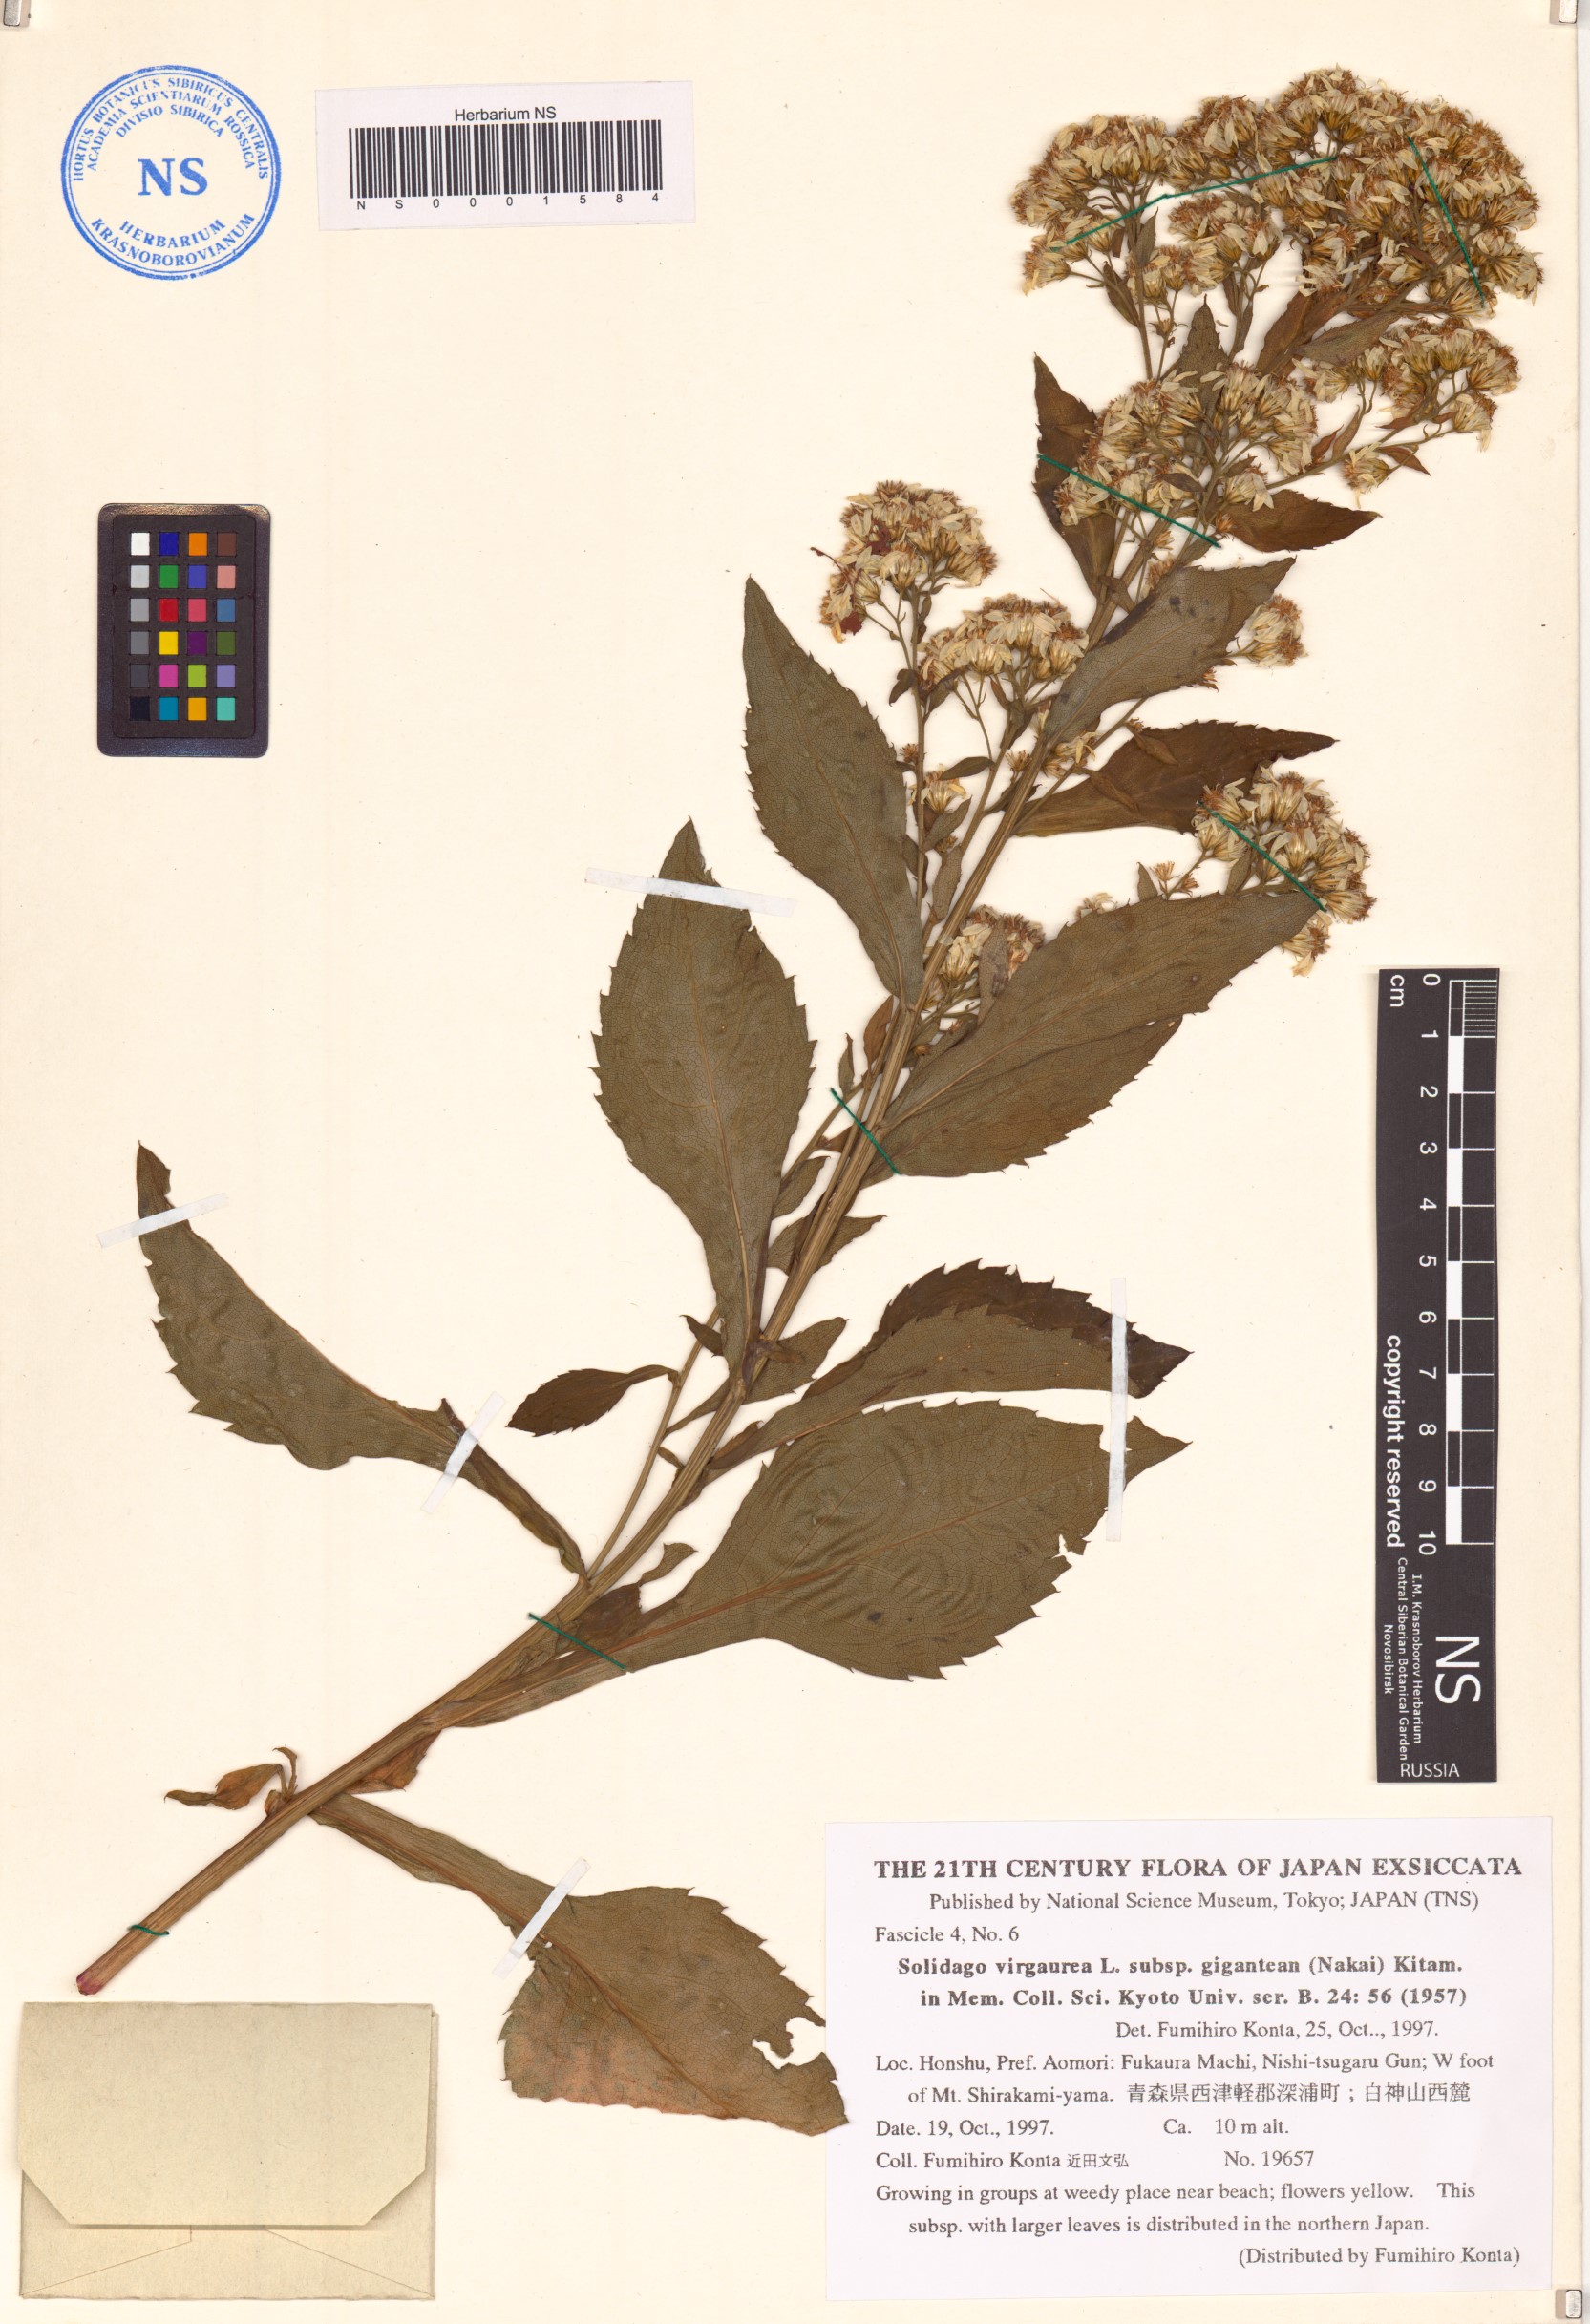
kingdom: Plantae
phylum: Tracheophyta
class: Magnoliopsida
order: Asterales
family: Asteraceae
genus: Solidago
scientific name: Solidago nipponica
